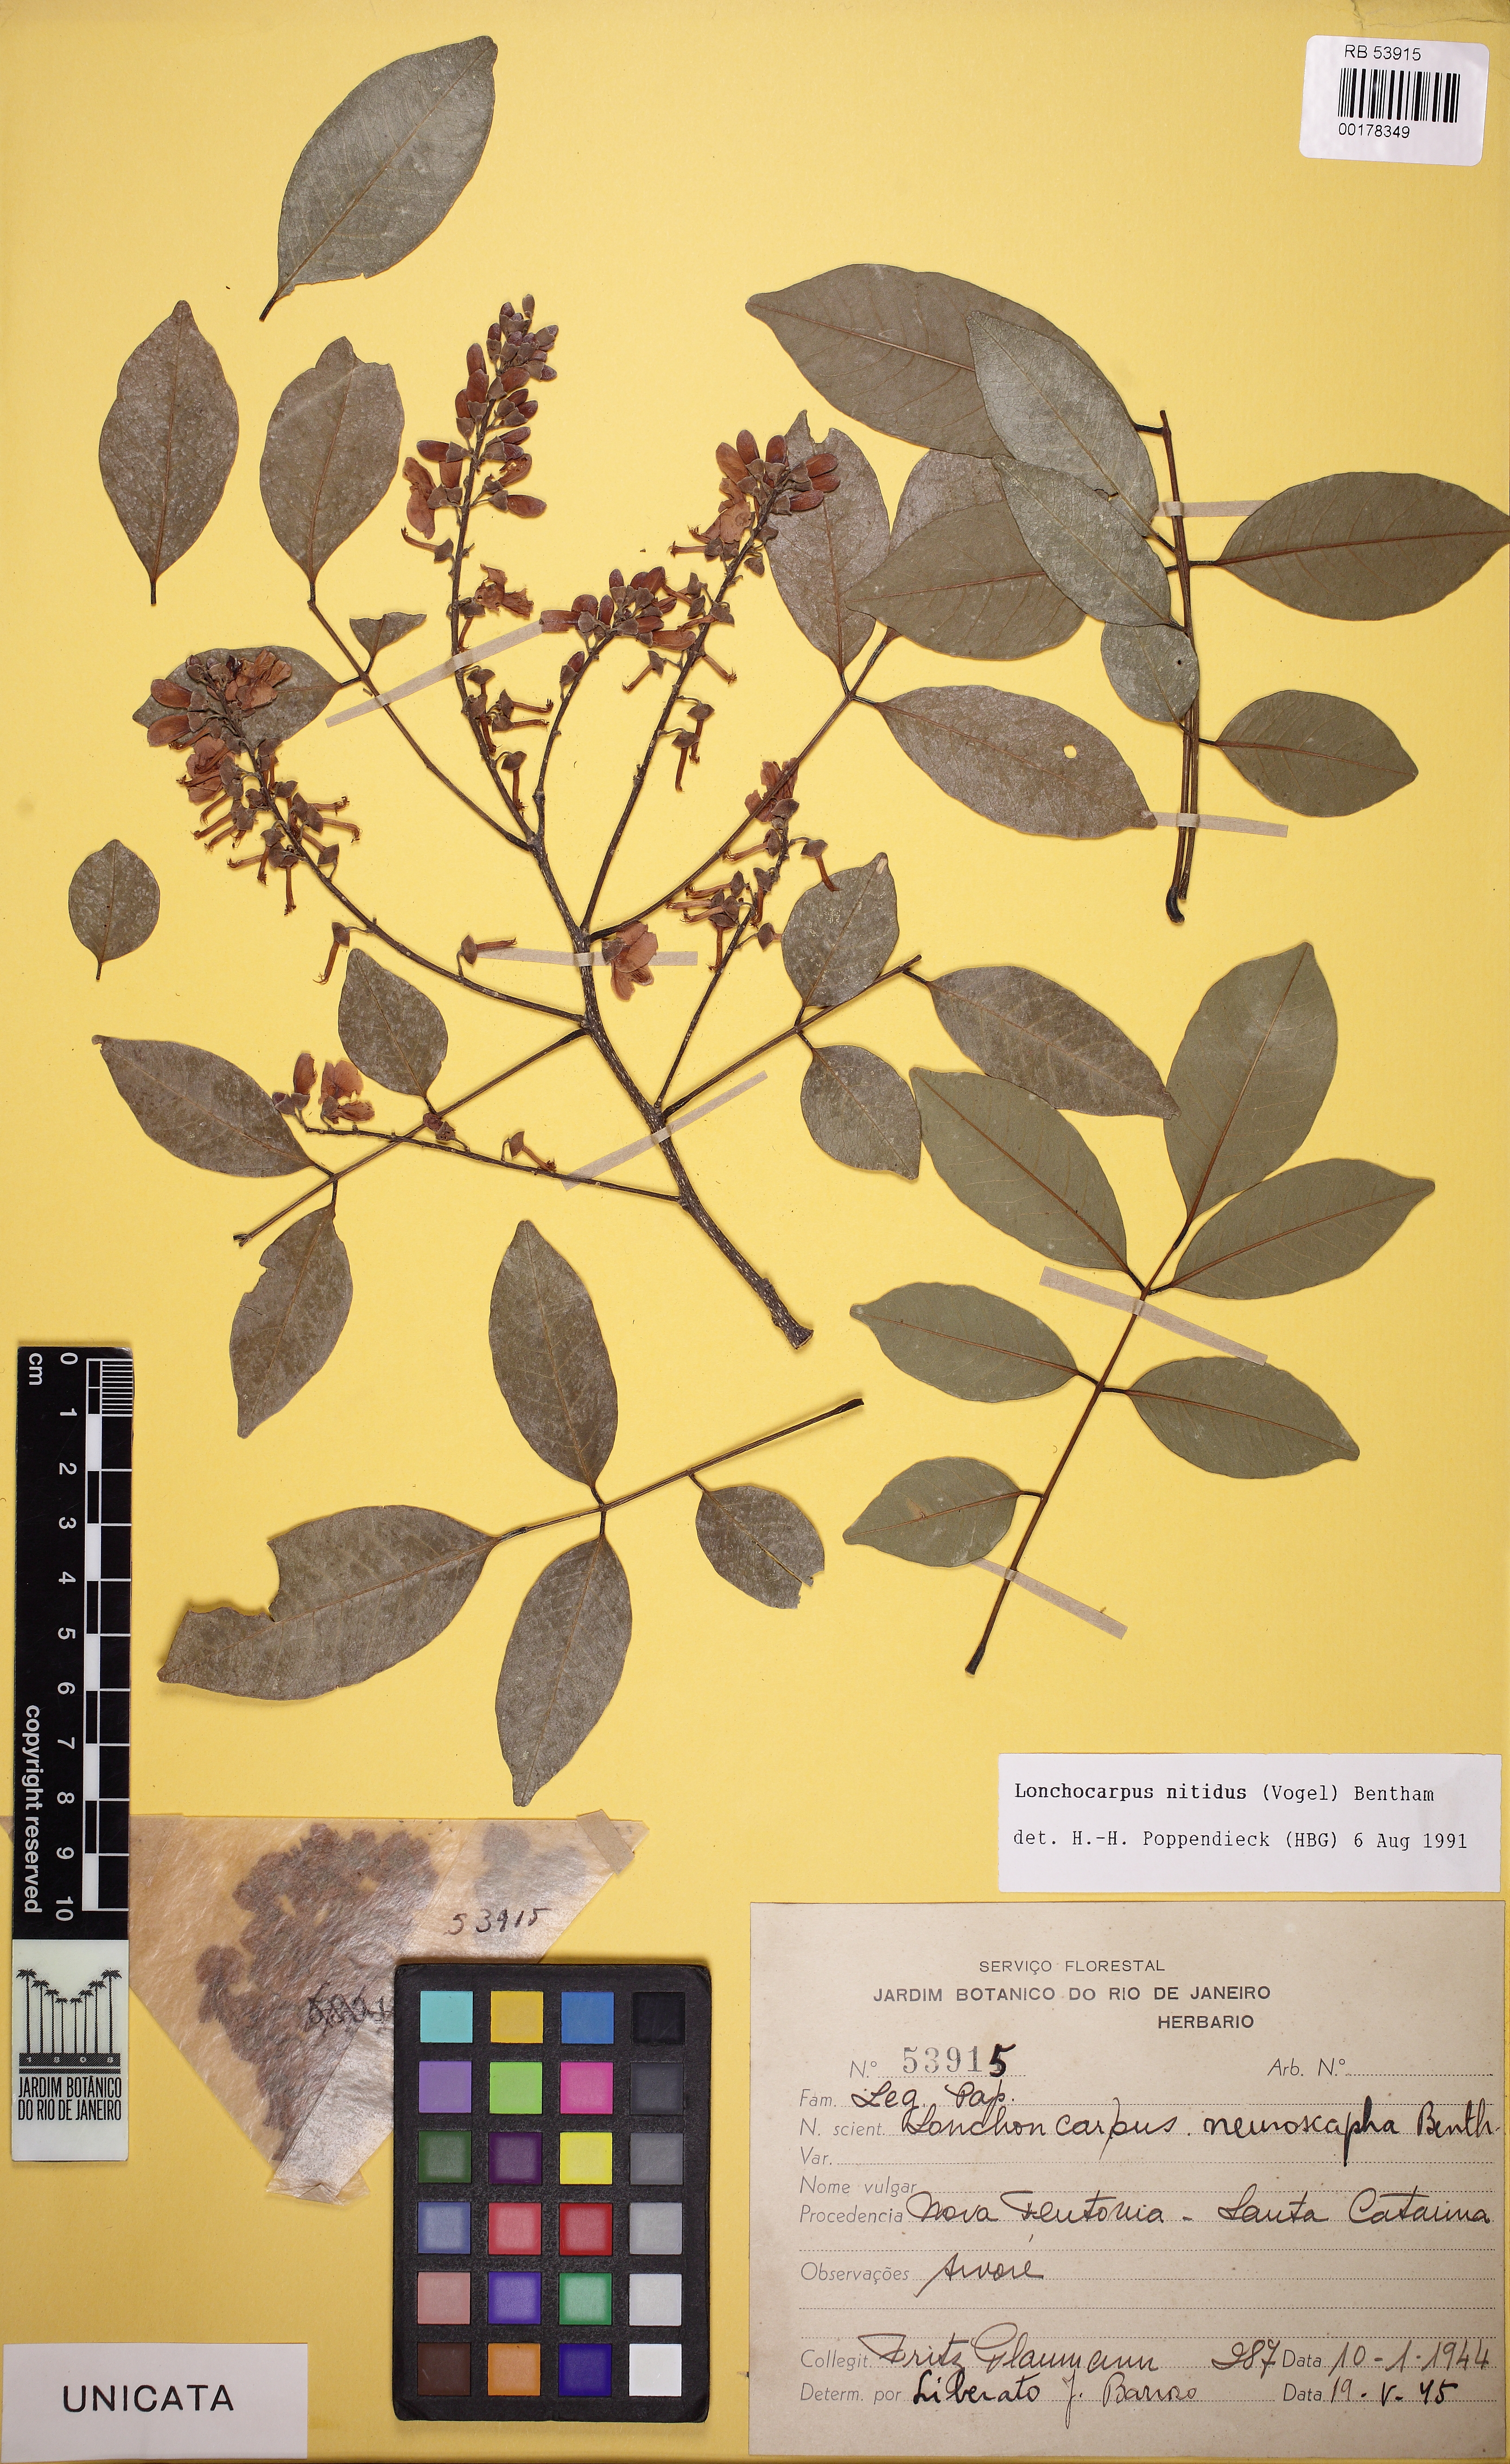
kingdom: Plantae
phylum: Tracheophyta
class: Magnoliopsida
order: Fabales
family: Fabaceae
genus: Lonchocarpus
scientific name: Lonchocarpus nitidus
